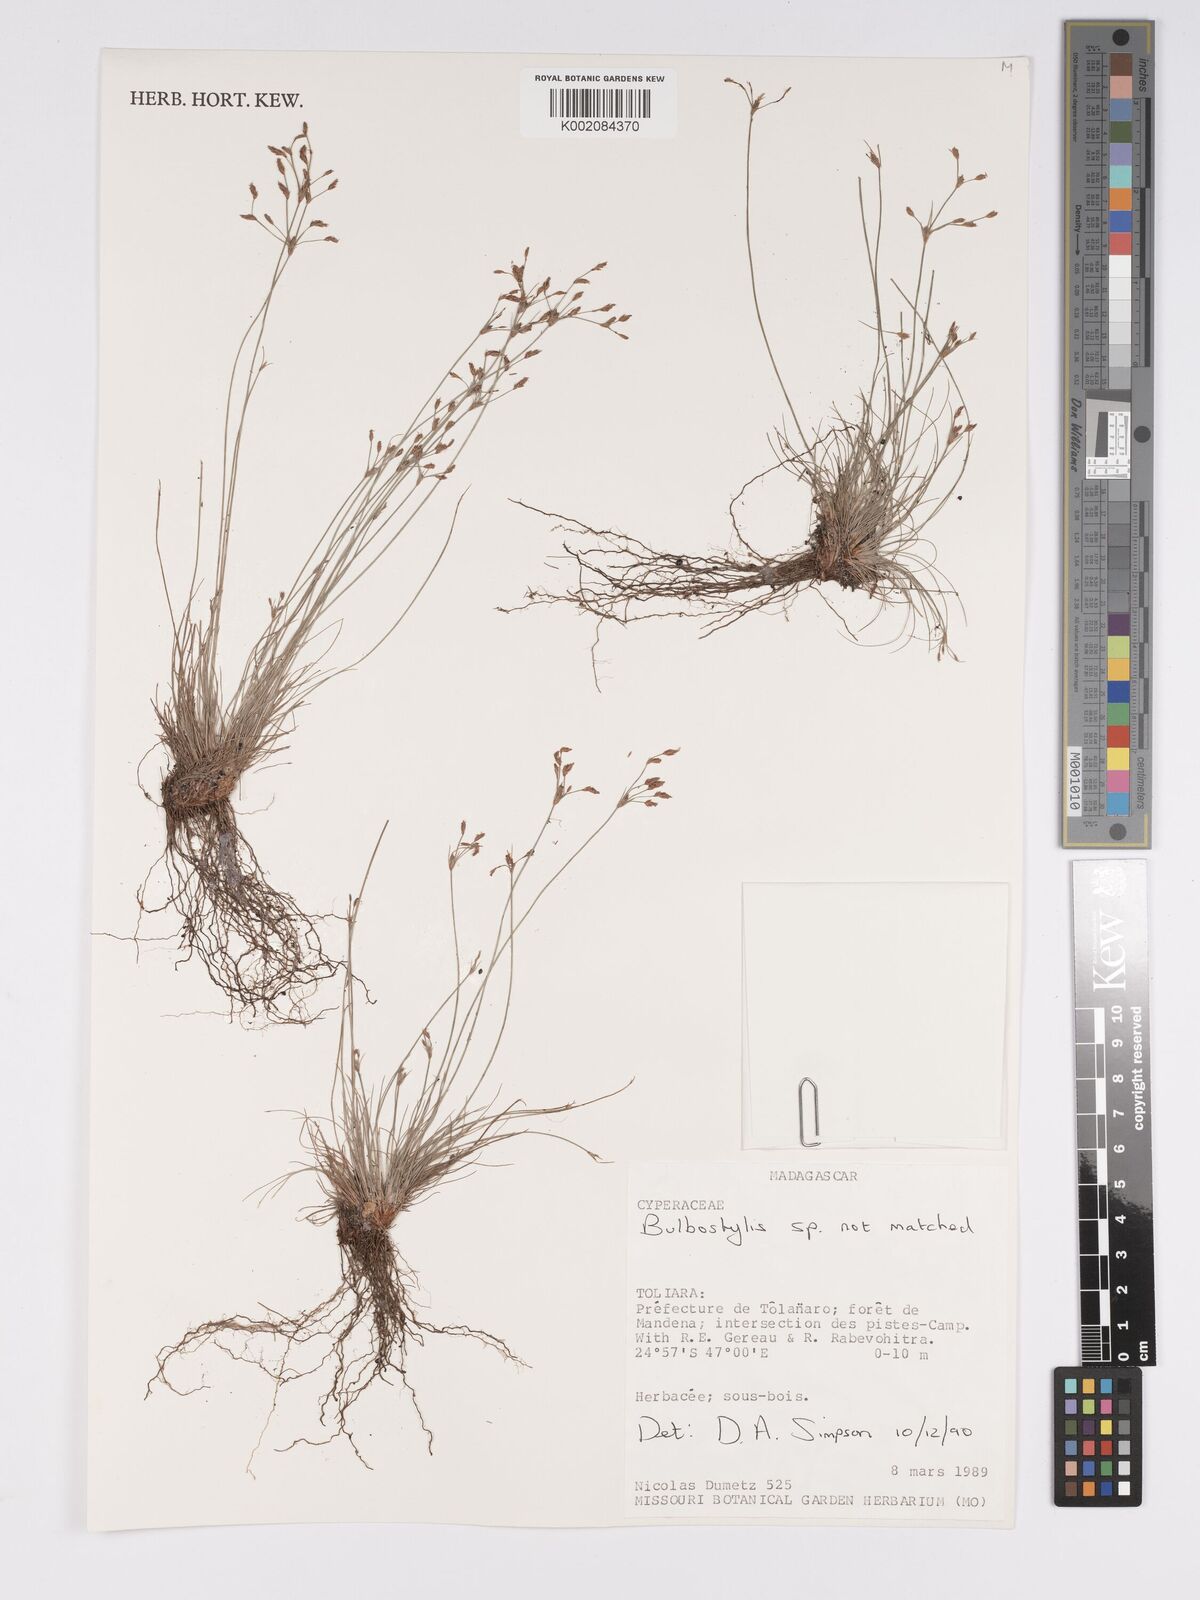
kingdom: Plantae
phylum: Tracheophyta
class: Liliopsida
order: Poales
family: Cyperaceae
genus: Bulbostylis
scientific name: Bulbostylis
